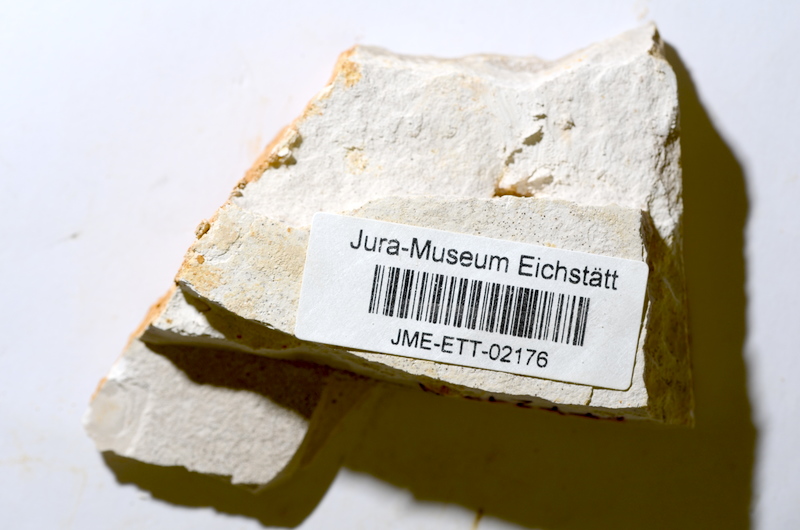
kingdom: Animalia
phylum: Chordata
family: Ascalaboidae
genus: Ebertichthys
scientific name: Ebertichthys ettlingensis
